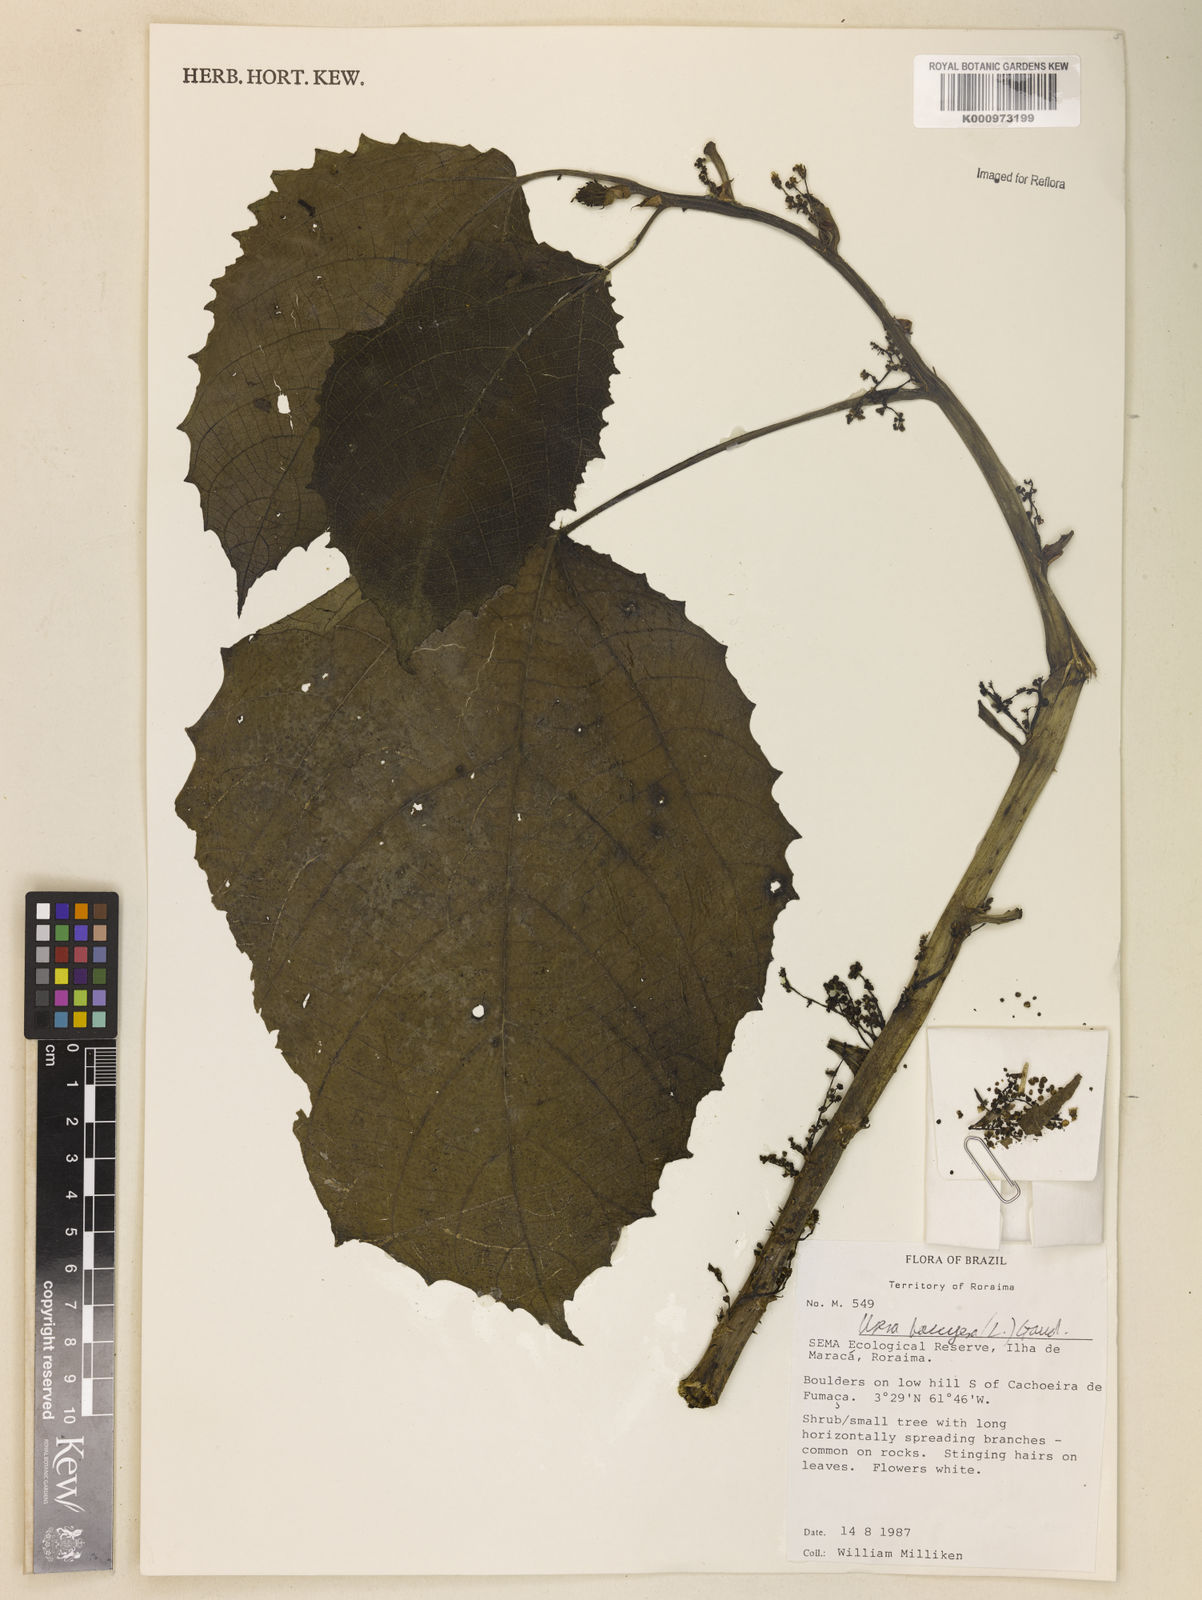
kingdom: Plantae
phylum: Tracheophyta
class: Magnoliopsida
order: Rosales
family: Urticaceae
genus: Urera
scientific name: Urera baccifera
